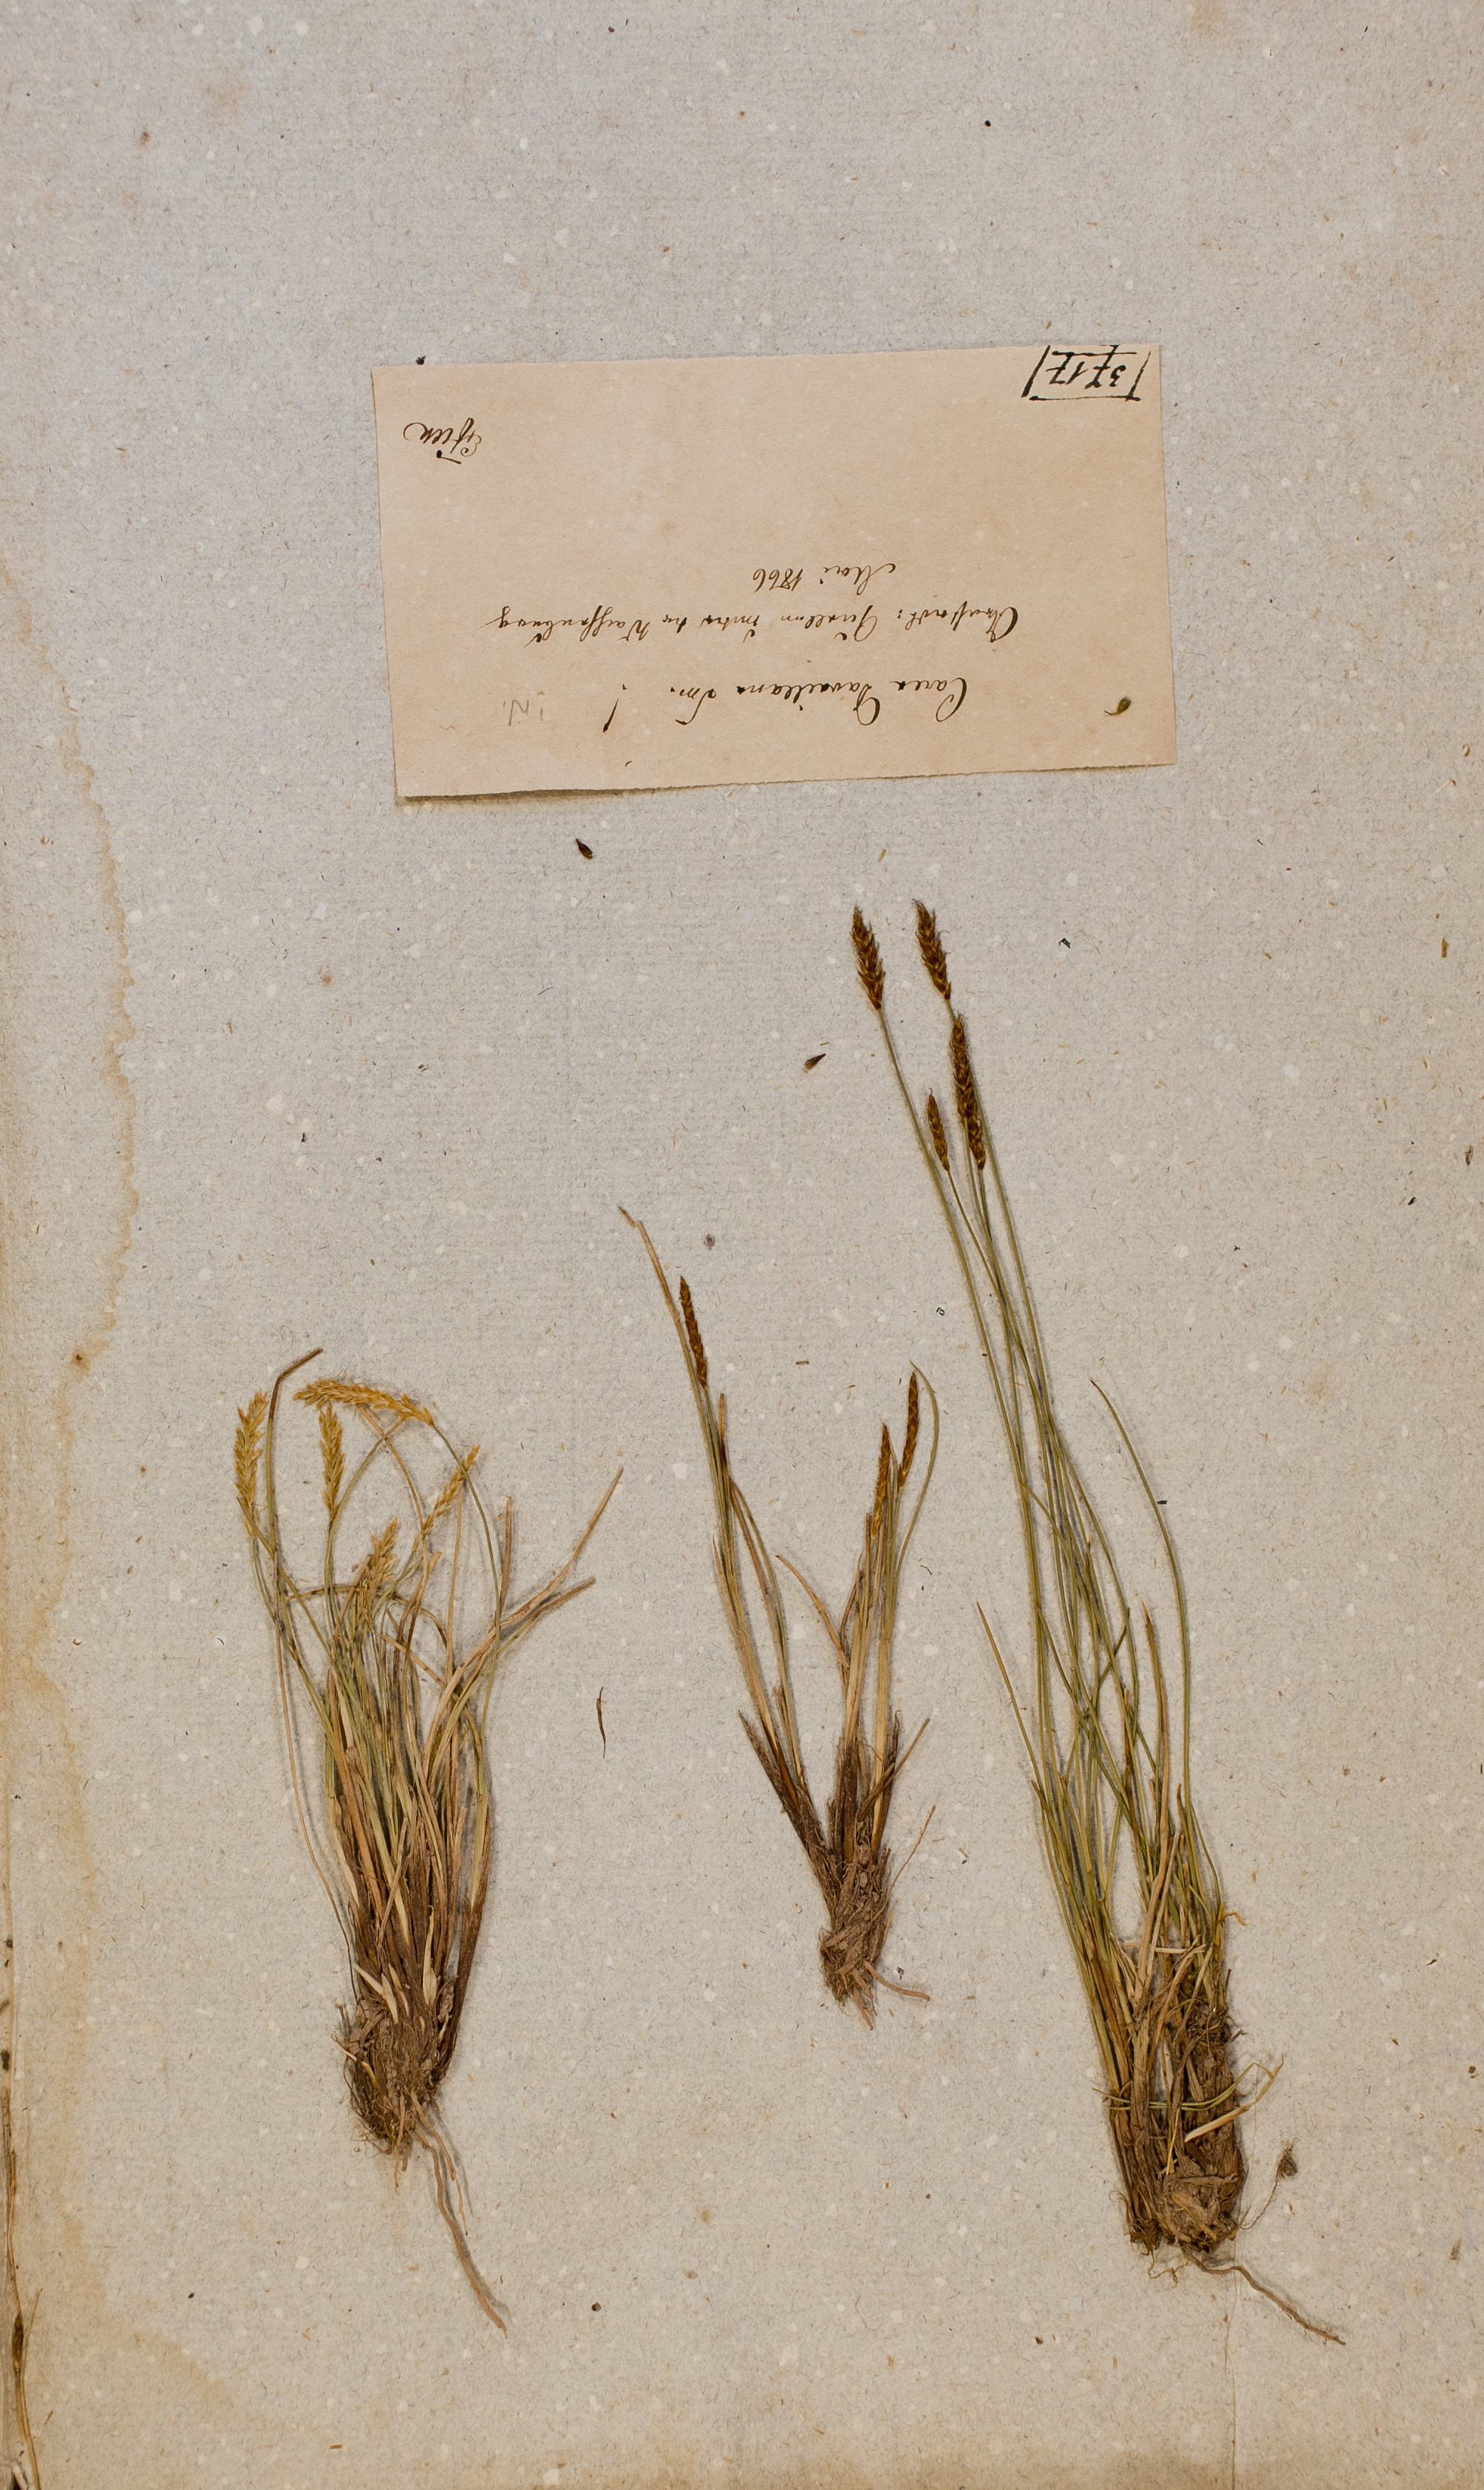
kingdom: Plantae
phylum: Tracheophyta
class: Liliopsida
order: Poales
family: Cyperaceae
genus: Carex
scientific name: Carex davalliana
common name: Davall's sedge
